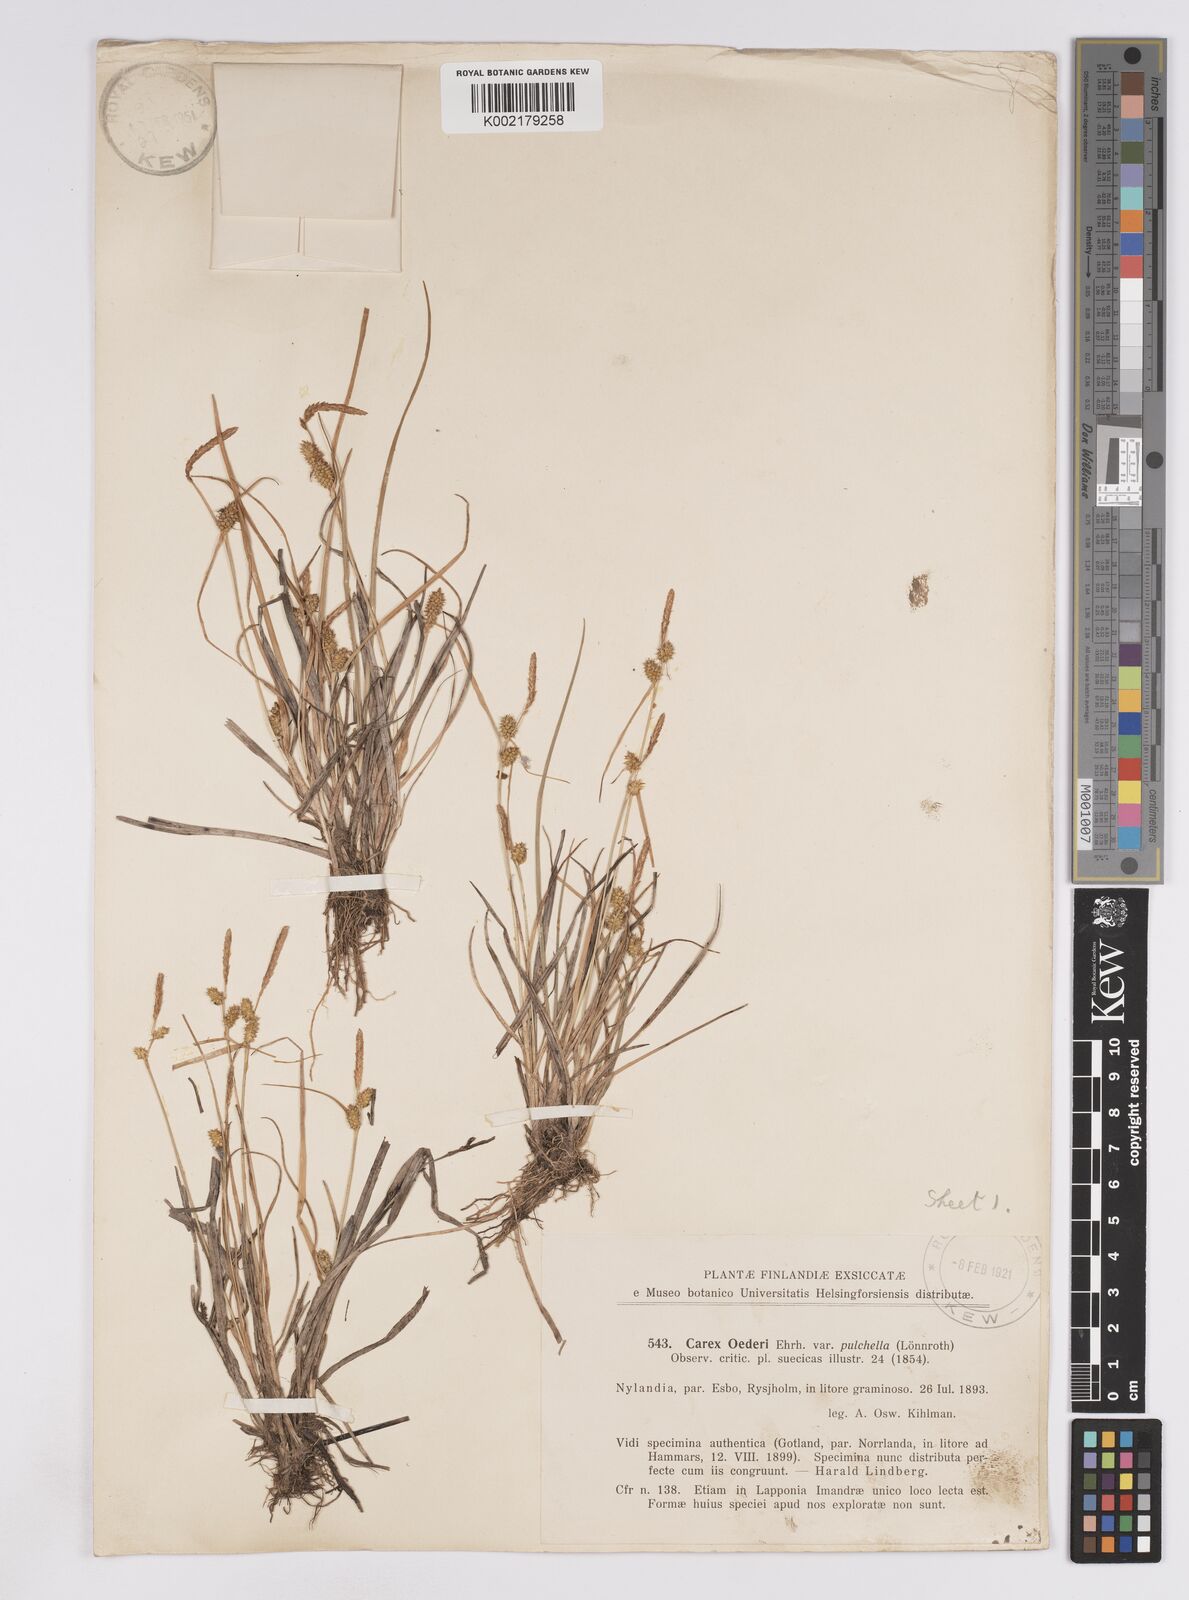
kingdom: Plantae
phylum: Tracheophyta
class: Liliopsida
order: Poales
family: Cyperaceae
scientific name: Cyperaceae
